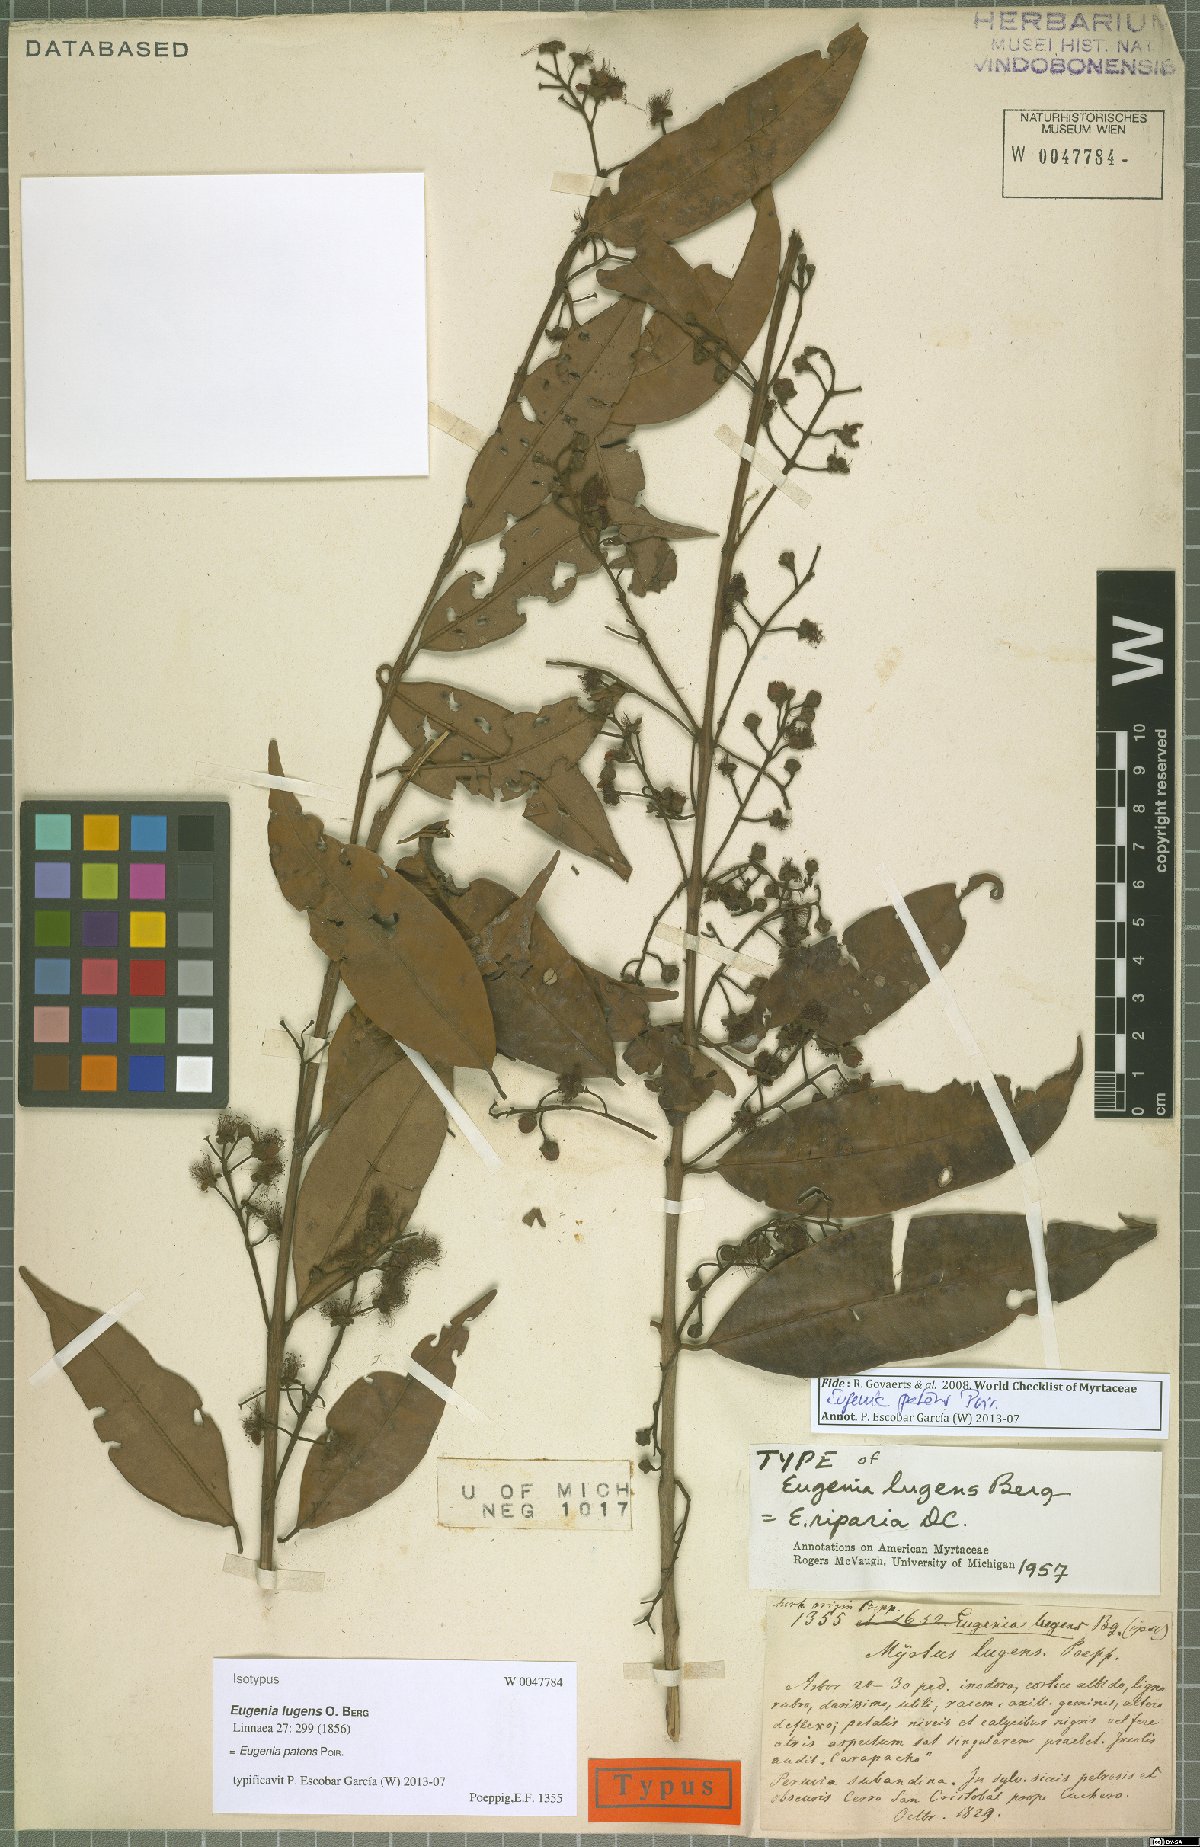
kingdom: Plantae
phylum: Tracheophyta
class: Magnoliopsida
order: Myrtales
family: Myrtaceae
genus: Eugenia
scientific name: Eugenia patens
